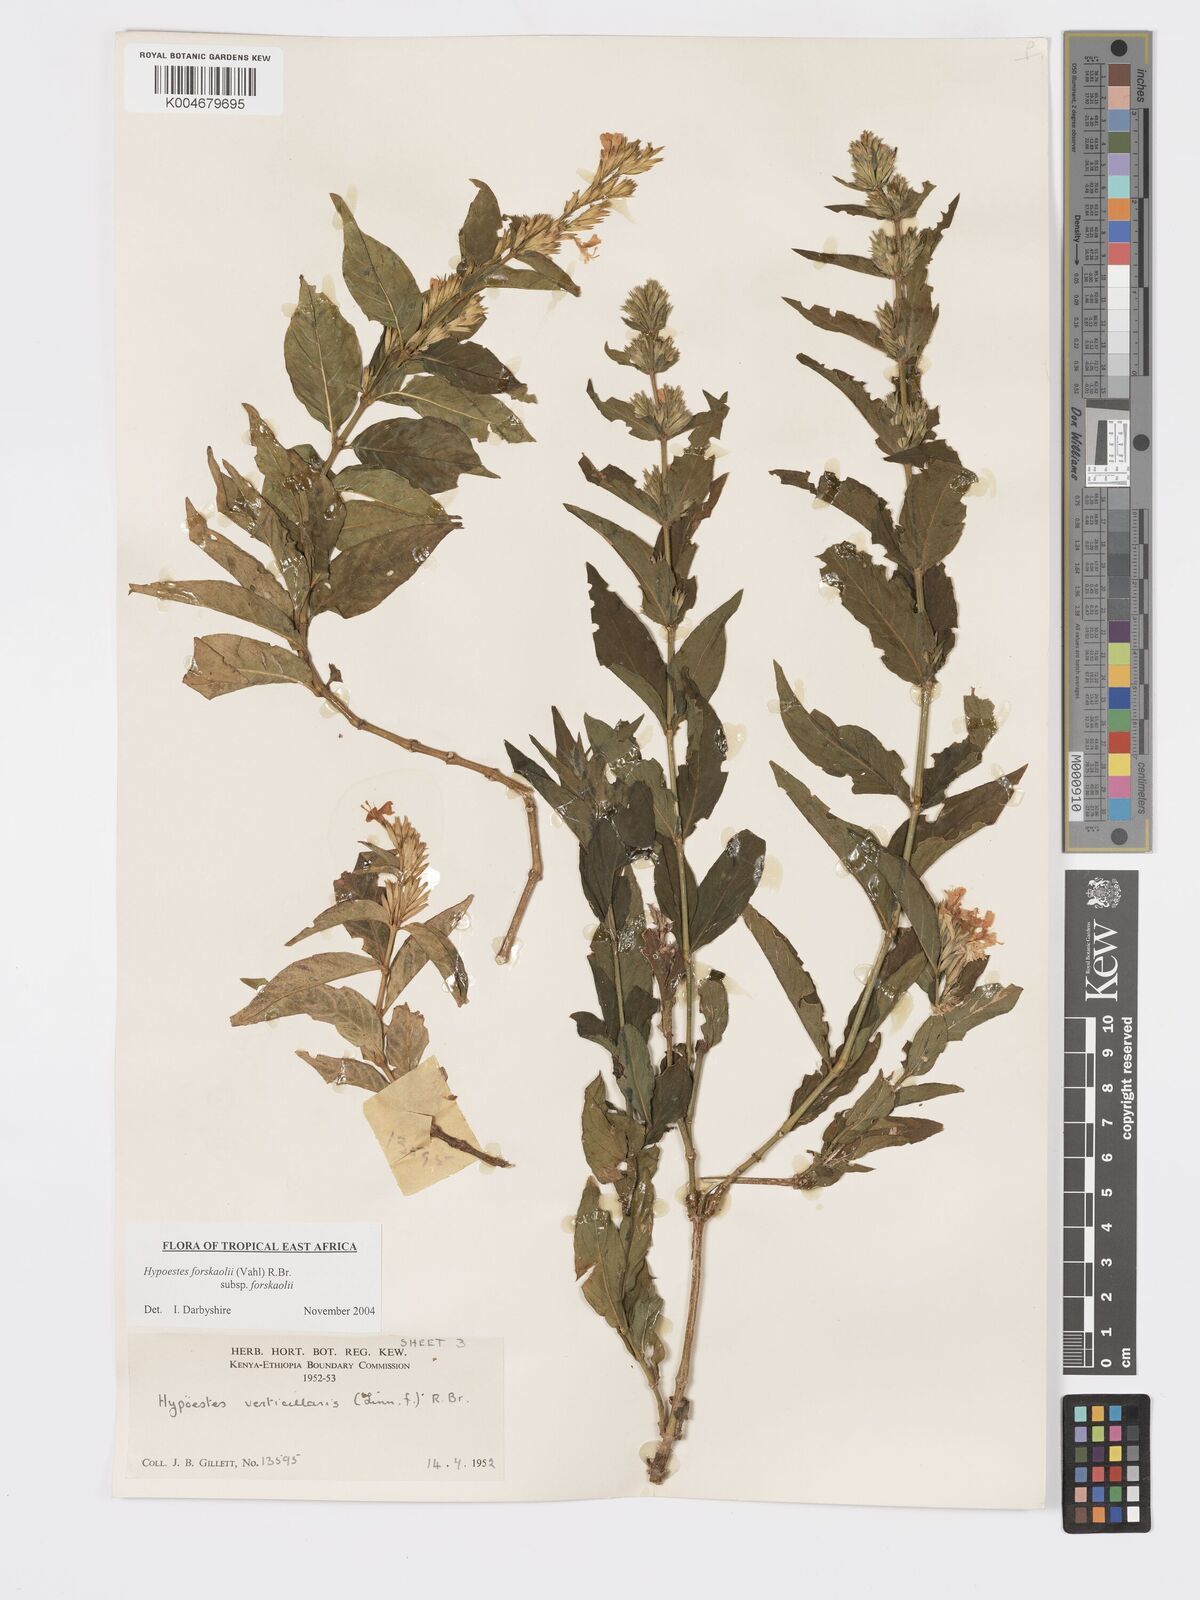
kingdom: Plantae
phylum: Tracheophyta
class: Magnoliopsida
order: Lamiales
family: Acanthaceae
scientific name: Acanthaceae
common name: Acanthaceae
